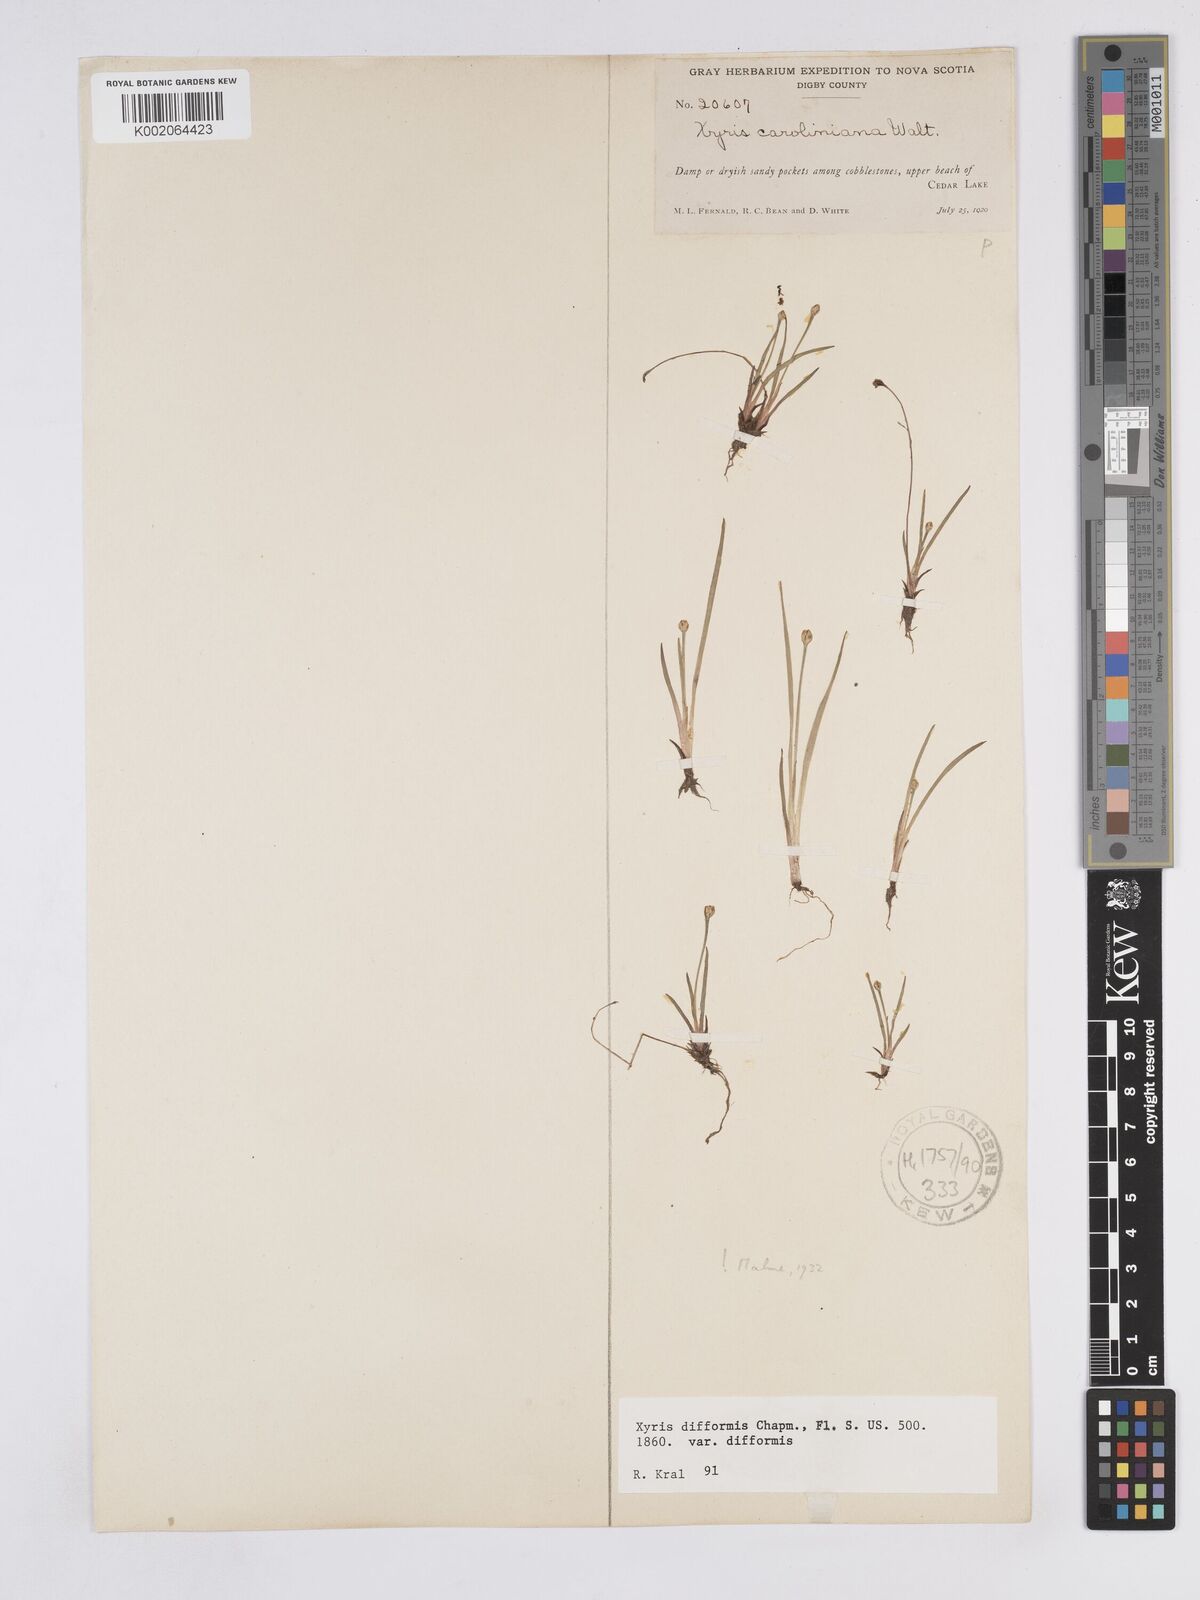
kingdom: Plantae
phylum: Tracheophyta
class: Liliopsida
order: Poales
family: Xyridaceae
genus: Xyris
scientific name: Xyris difformis
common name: Bog yellow-eyed-grass
